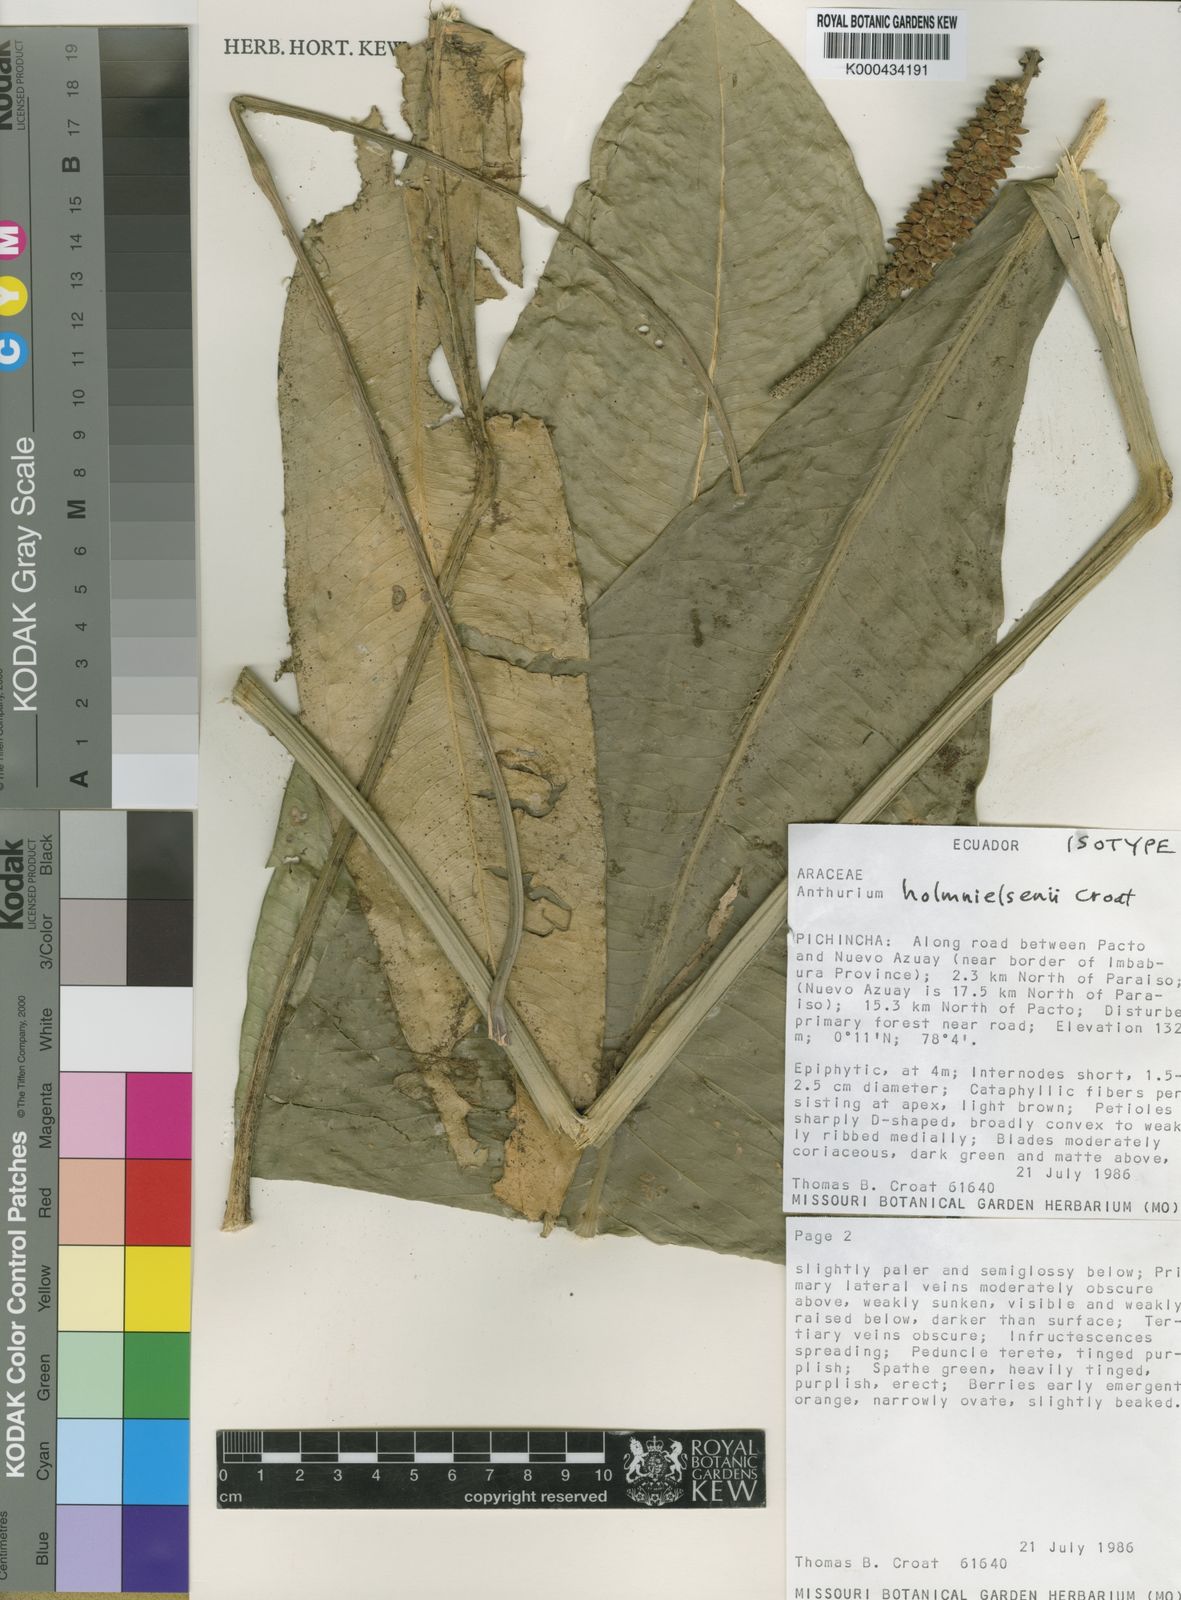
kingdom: Plantae
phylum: Tracheophyta
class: Liliopsida
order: Alismatales
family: Araceae
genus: Anthurium
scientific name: Anthurium holm-nielsenii
